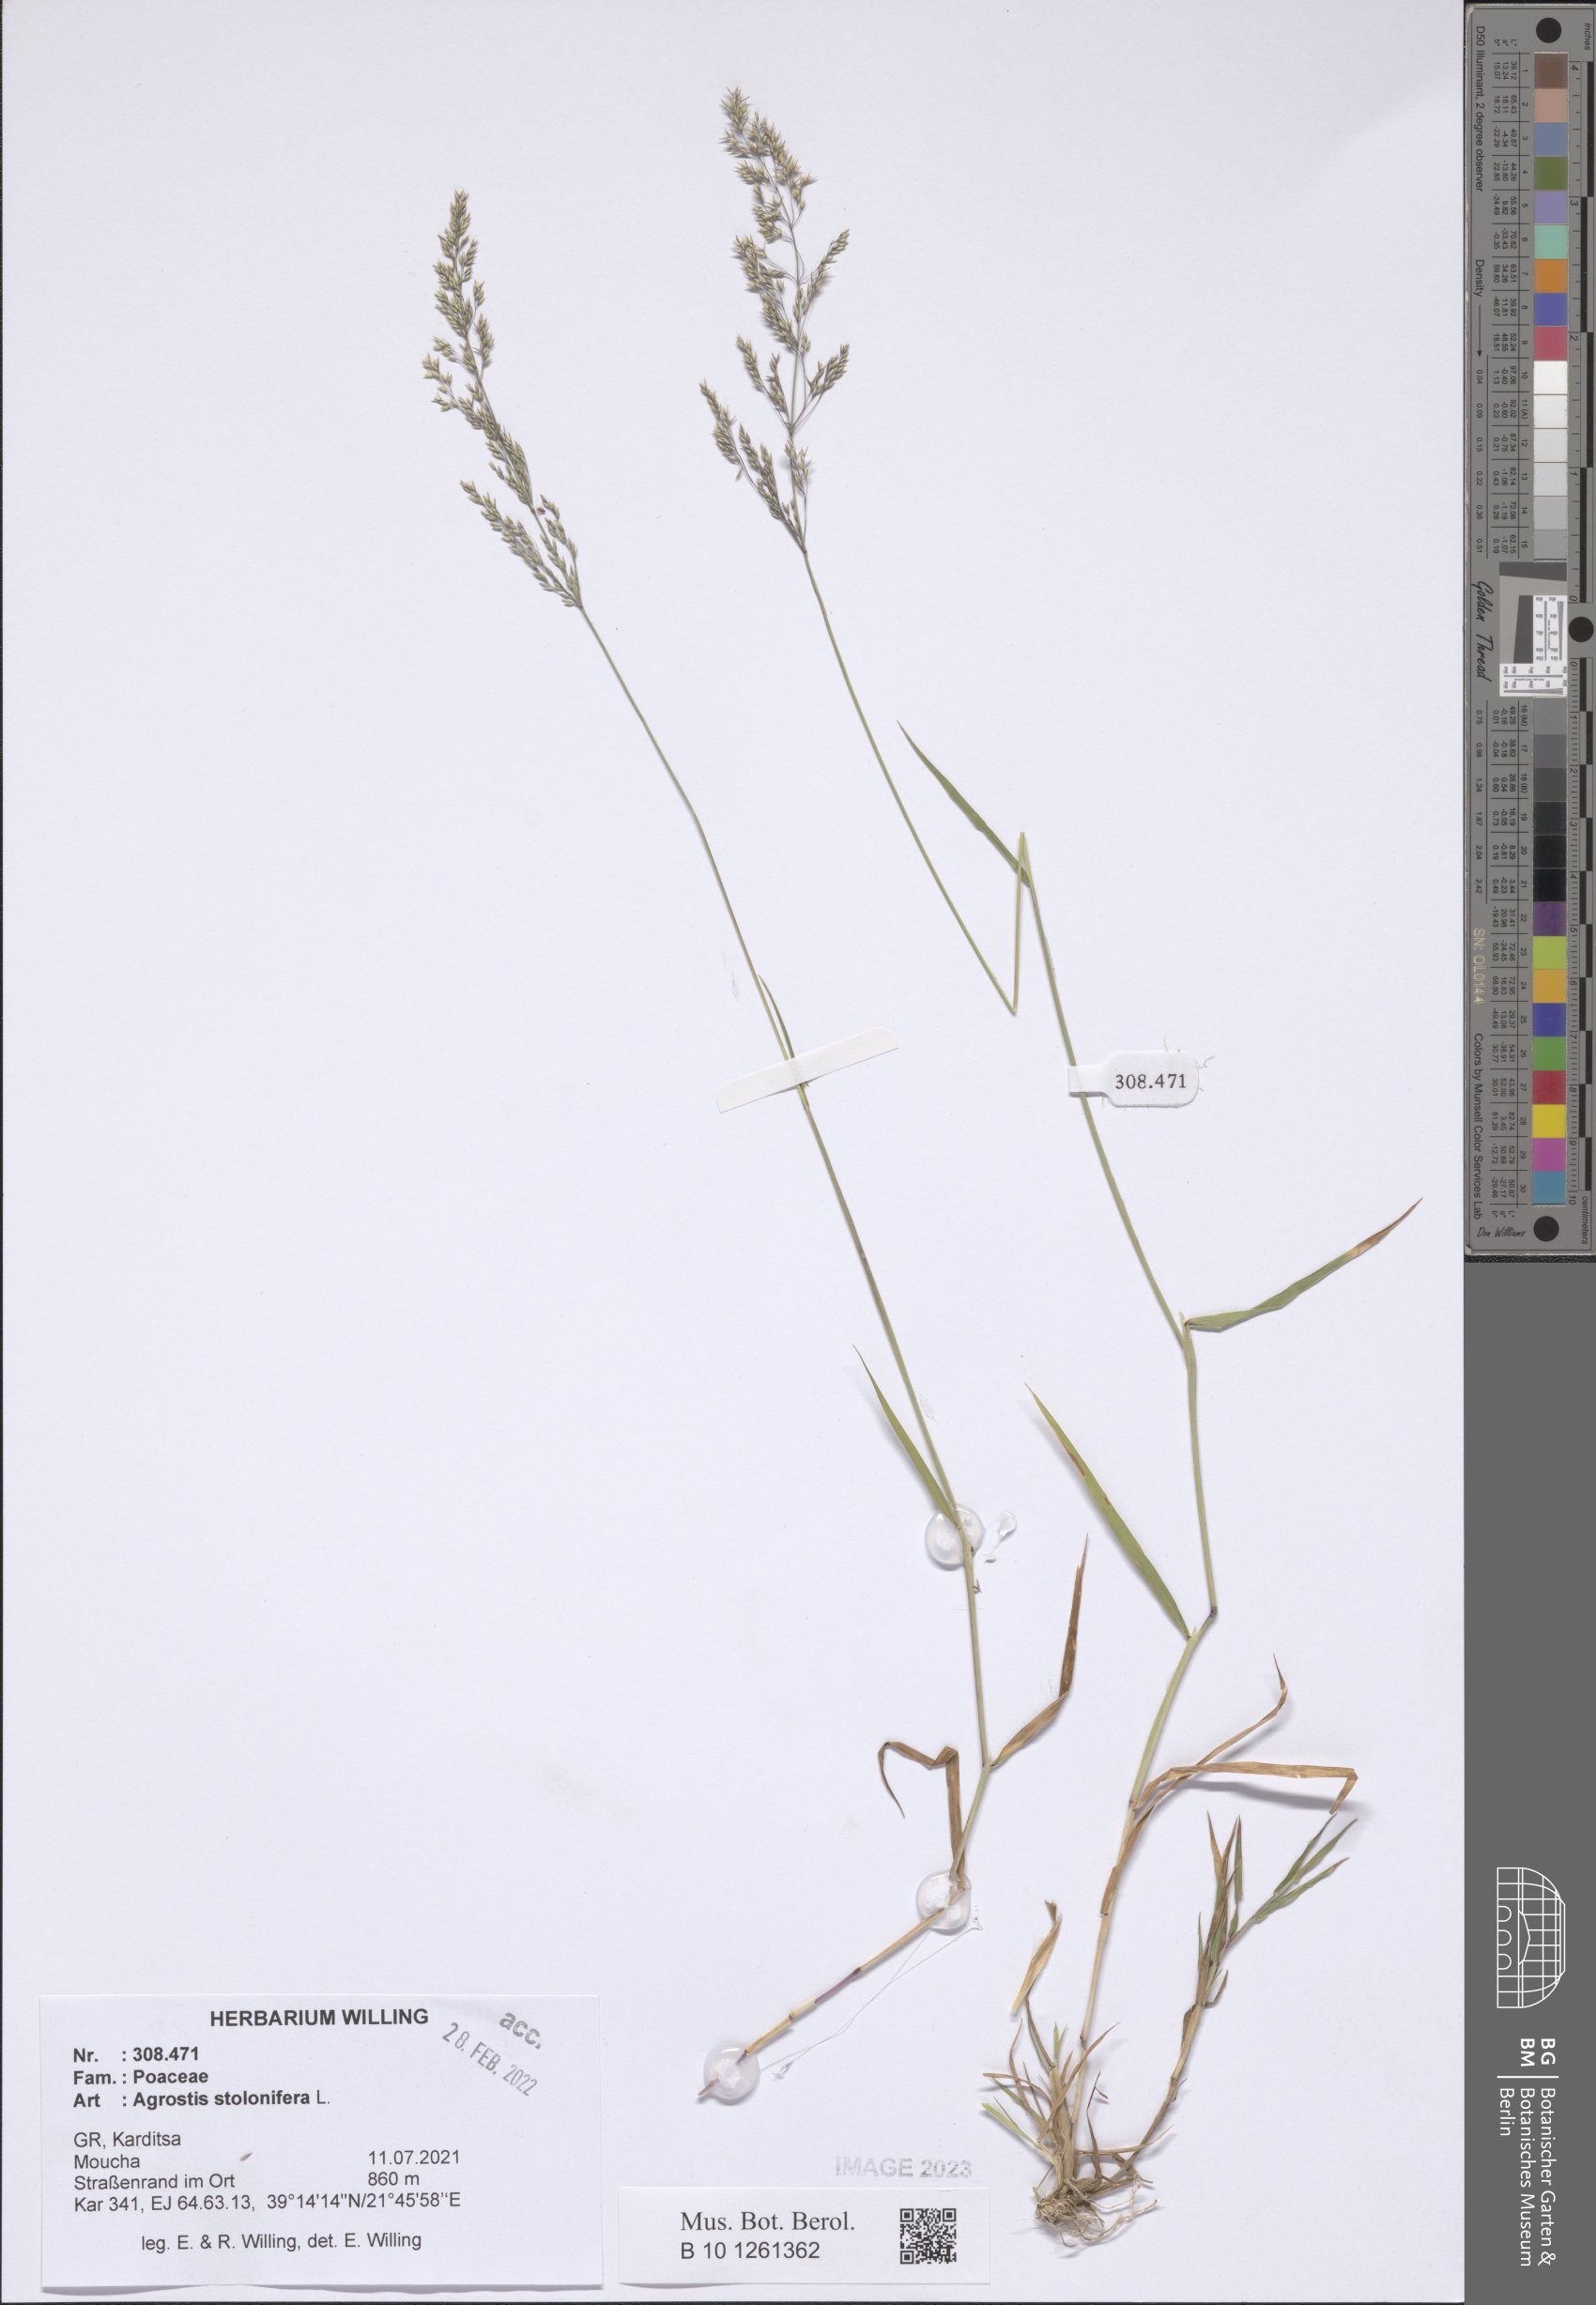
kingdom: Plantae
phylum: Tracheophyta
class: Liliopsida
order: Poales
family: Poaceae
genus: Agrostis
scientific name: Agrostis stolonifera
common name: Creeping bentgrass
